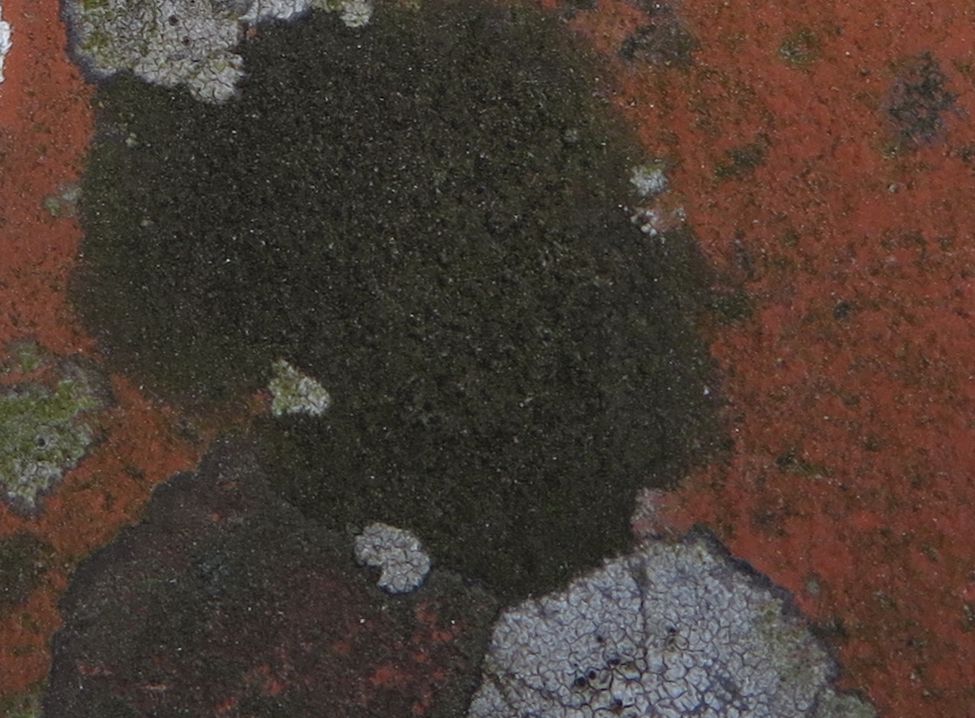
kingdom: Fungi
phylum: Ascomycota
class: Eurotiomycetes
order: Verrucariales
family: Verrucariaceae
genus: Verrucaria
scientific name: Verrucaria nigrescens
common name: sortbrun vortelav
